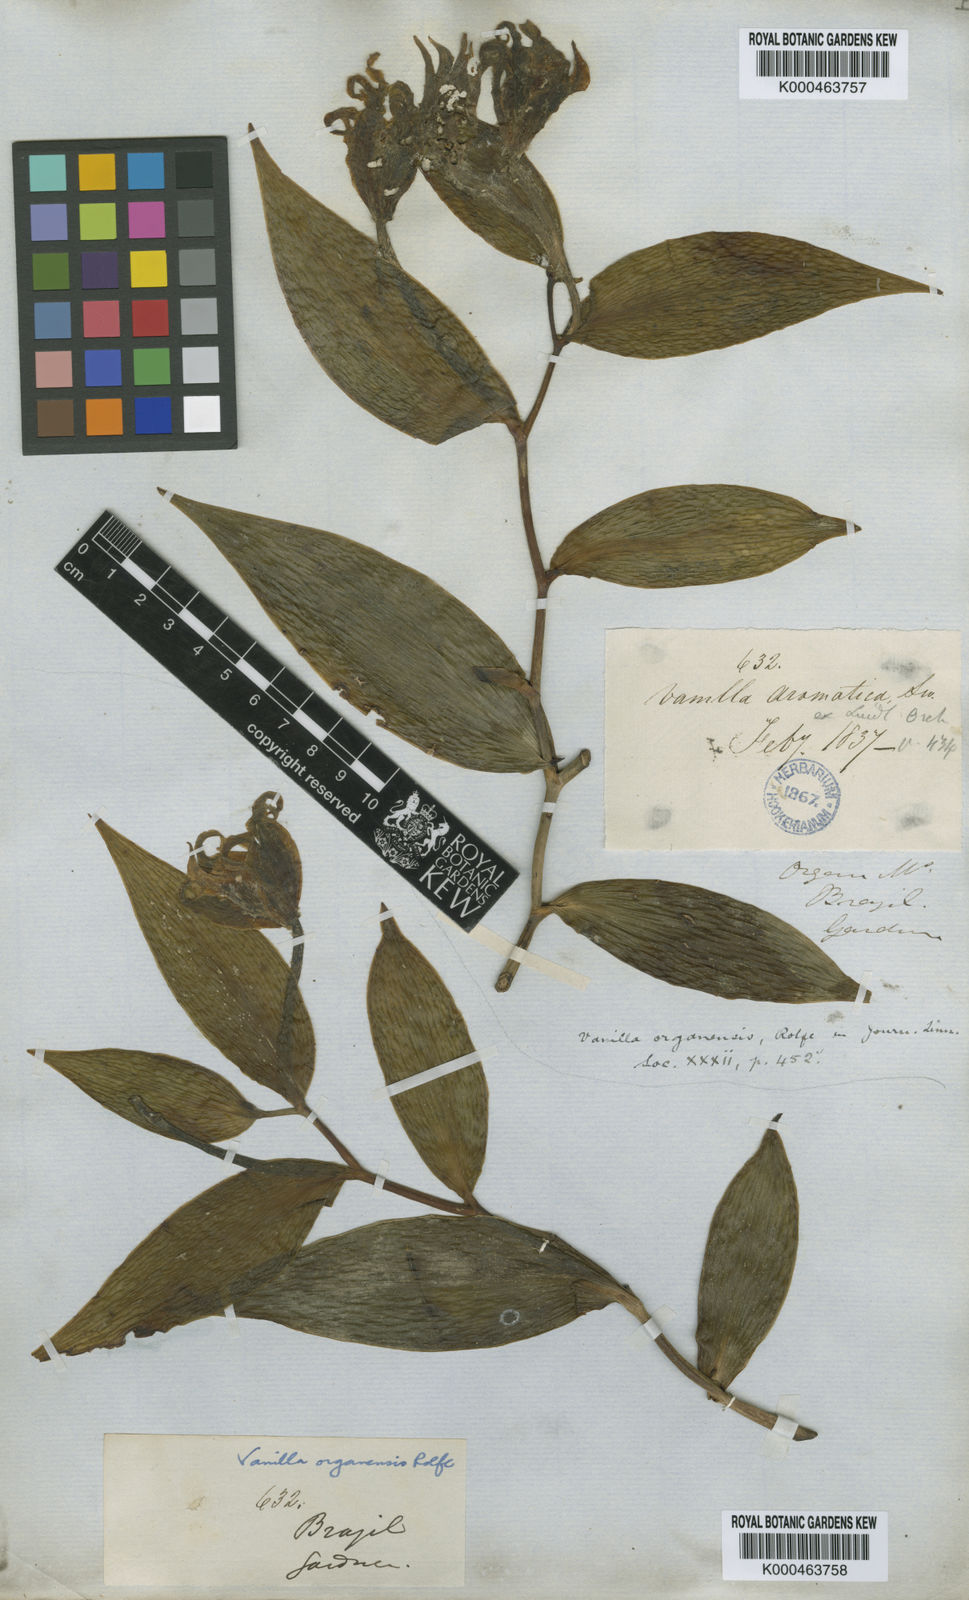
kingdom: Plantae
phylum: Tracheophyta
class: Liliopsida
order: Asparagales
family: Orchidaceae
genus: Vanilla
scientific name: Vanilla organensis
